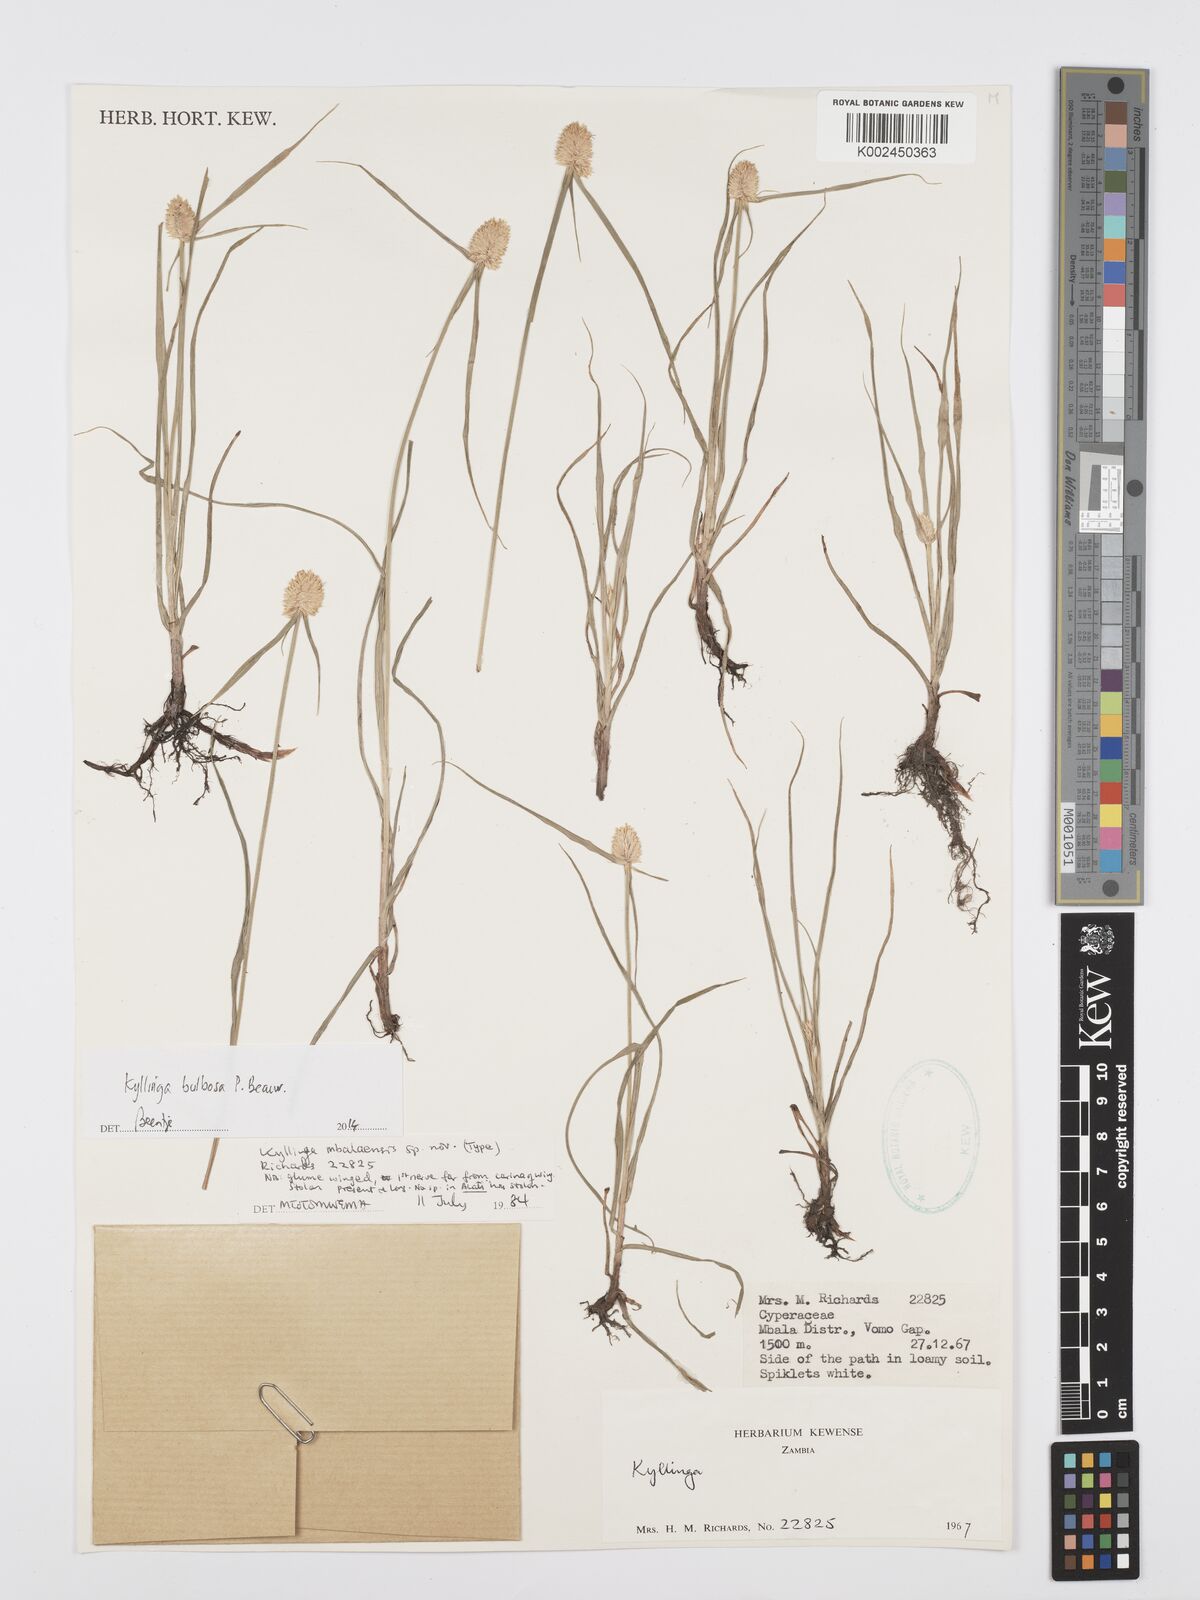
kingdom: Plantae
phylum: Tracheophyta
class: Liliopsida
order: Poales
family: Cyperaceae
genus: Cyperus
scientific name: Cyperus
